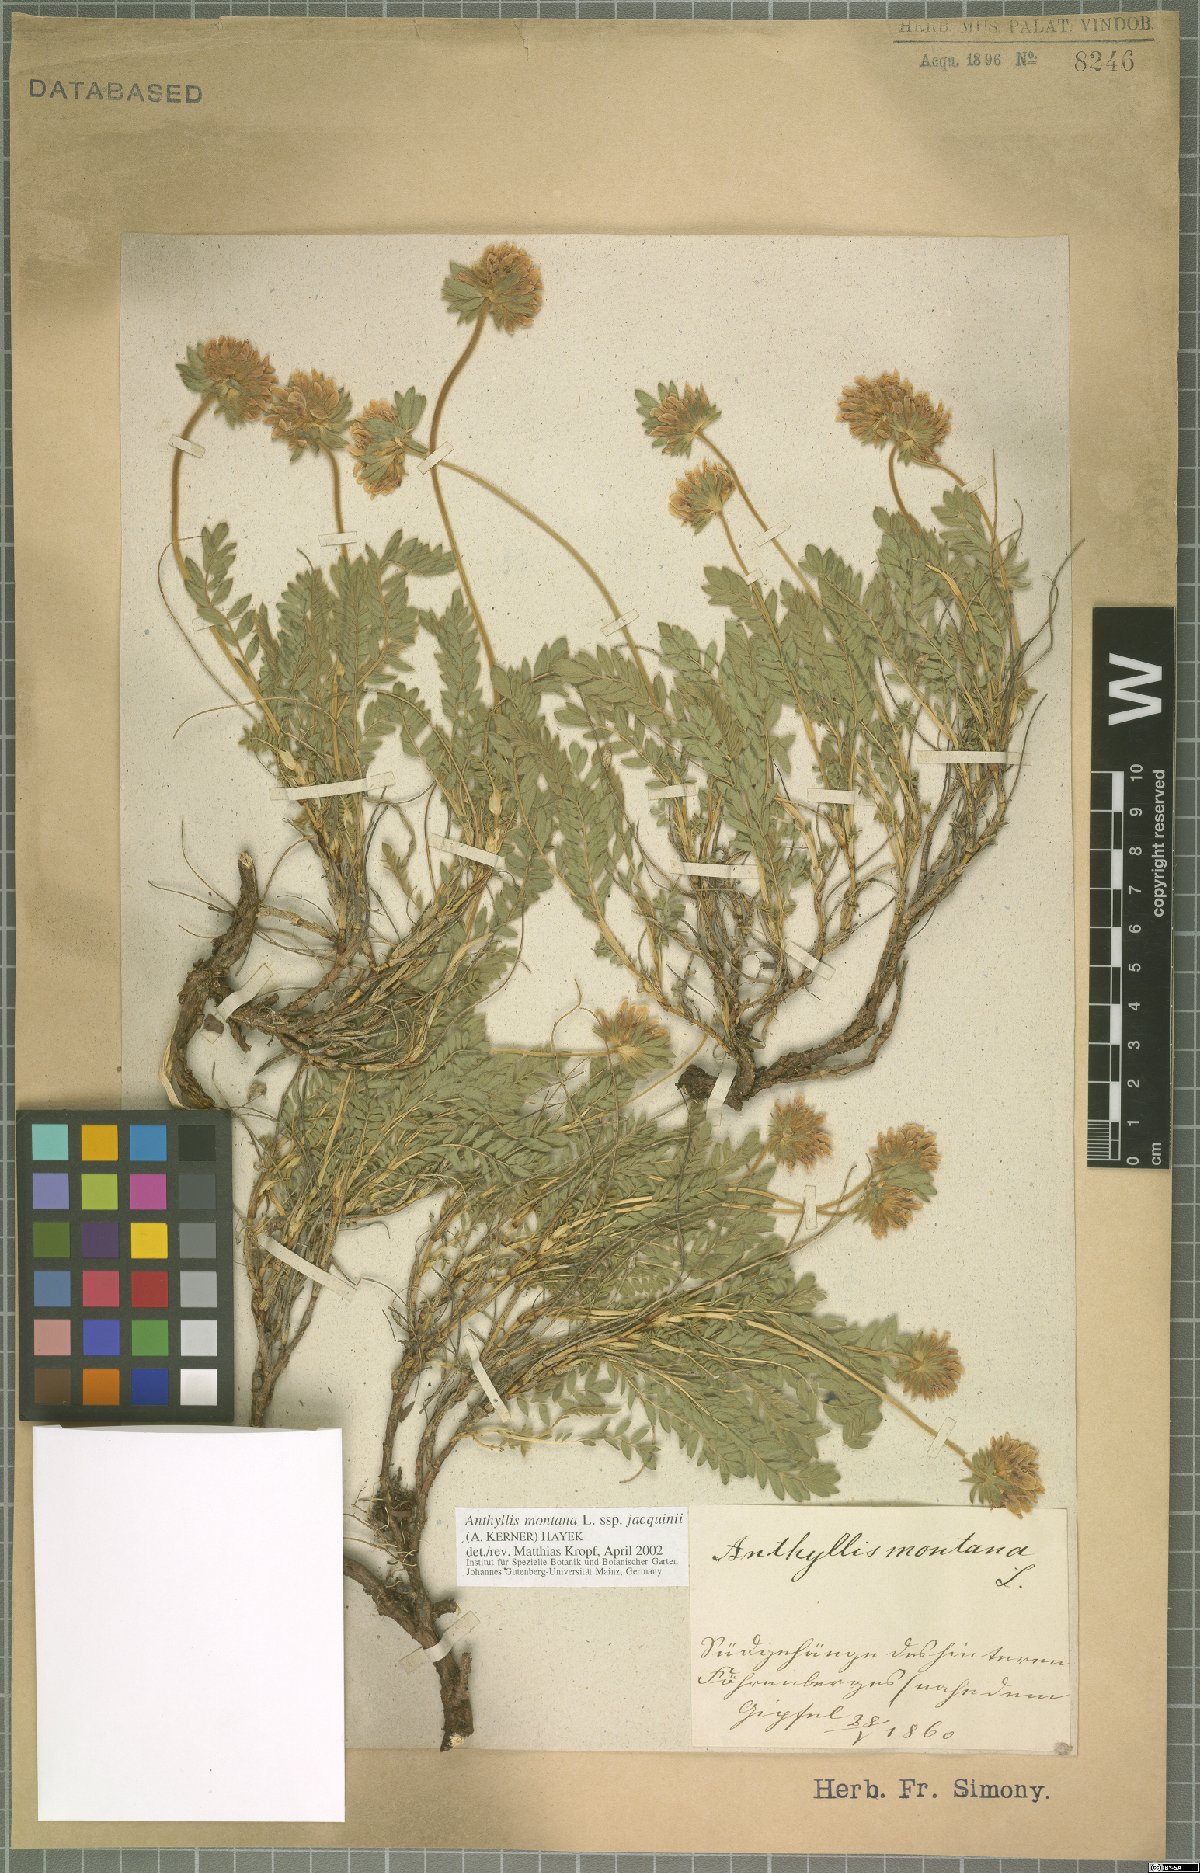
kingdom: Plantae
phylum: Tracheophyta
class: Magnoliopsida
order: Fabales
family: Fabaceae
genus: Anthyllis
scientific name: Anthyllis montana
